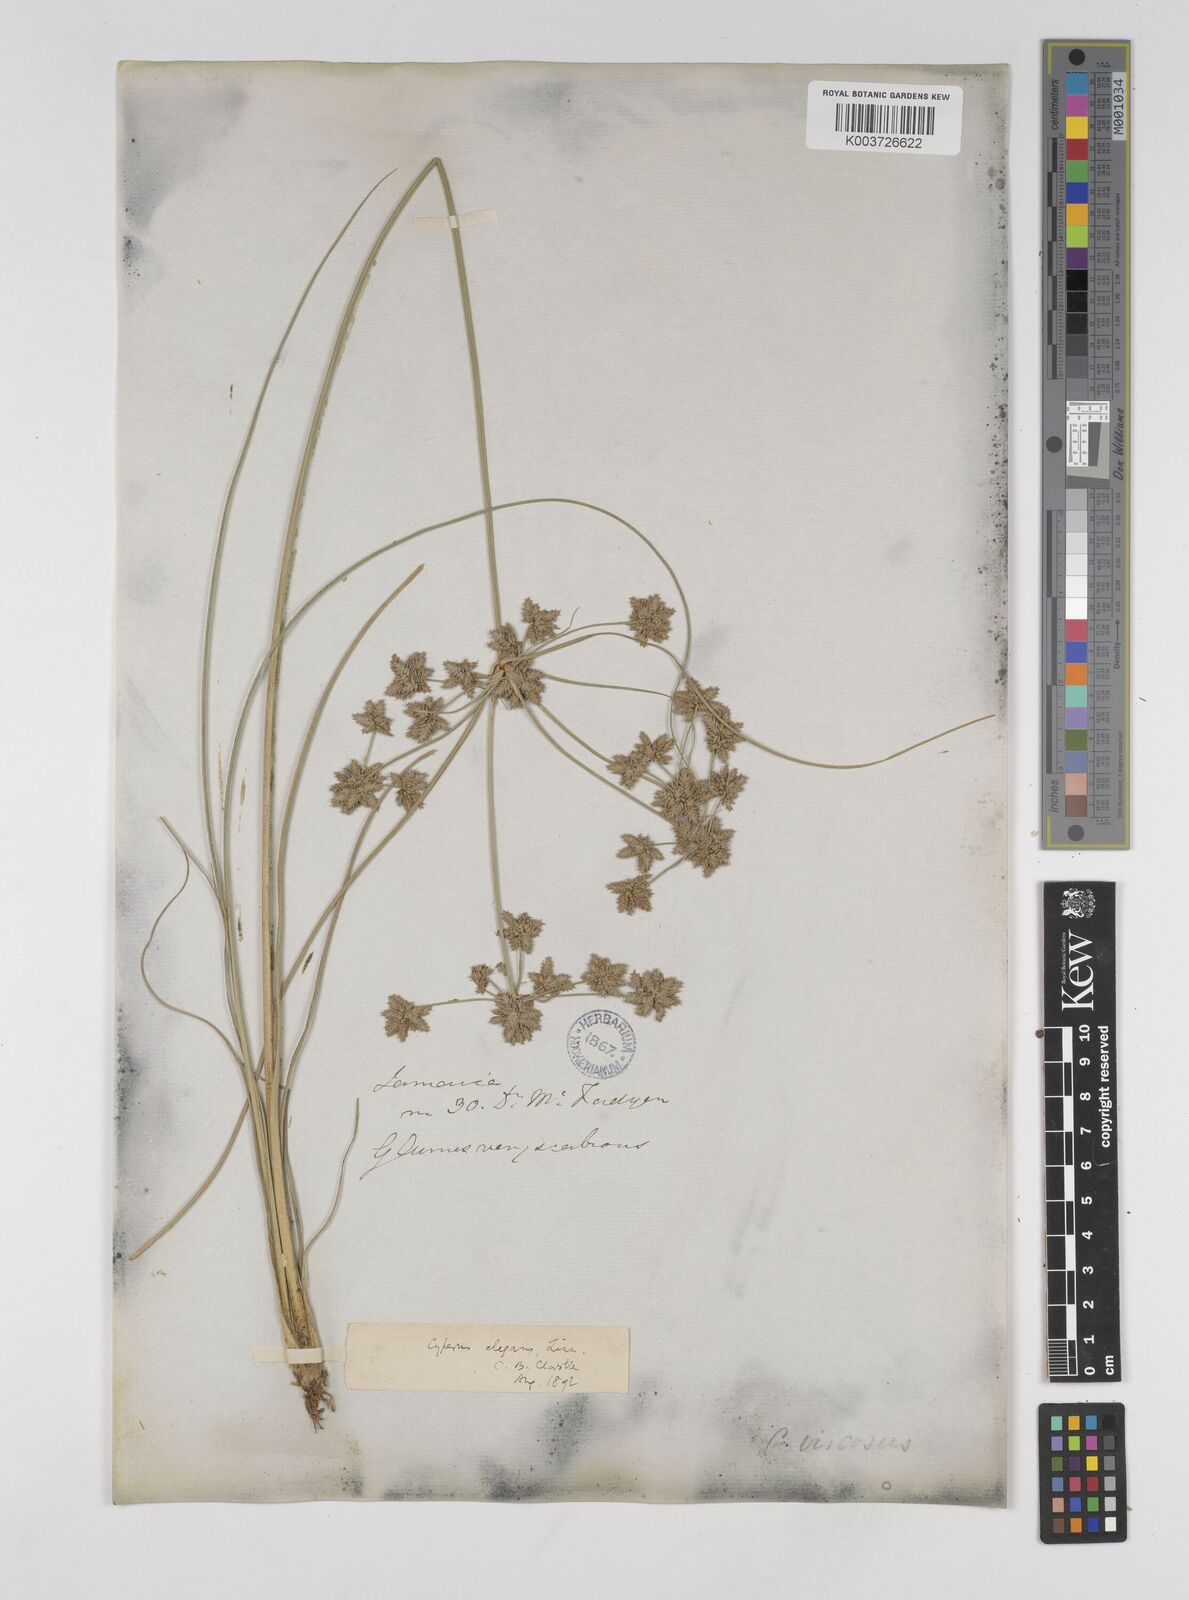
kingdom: Plantae
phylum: Tracheophyta
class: Liliopsida
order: Poales
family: Cyperaceae
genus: Cyperus
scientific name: Cyperus elegans
